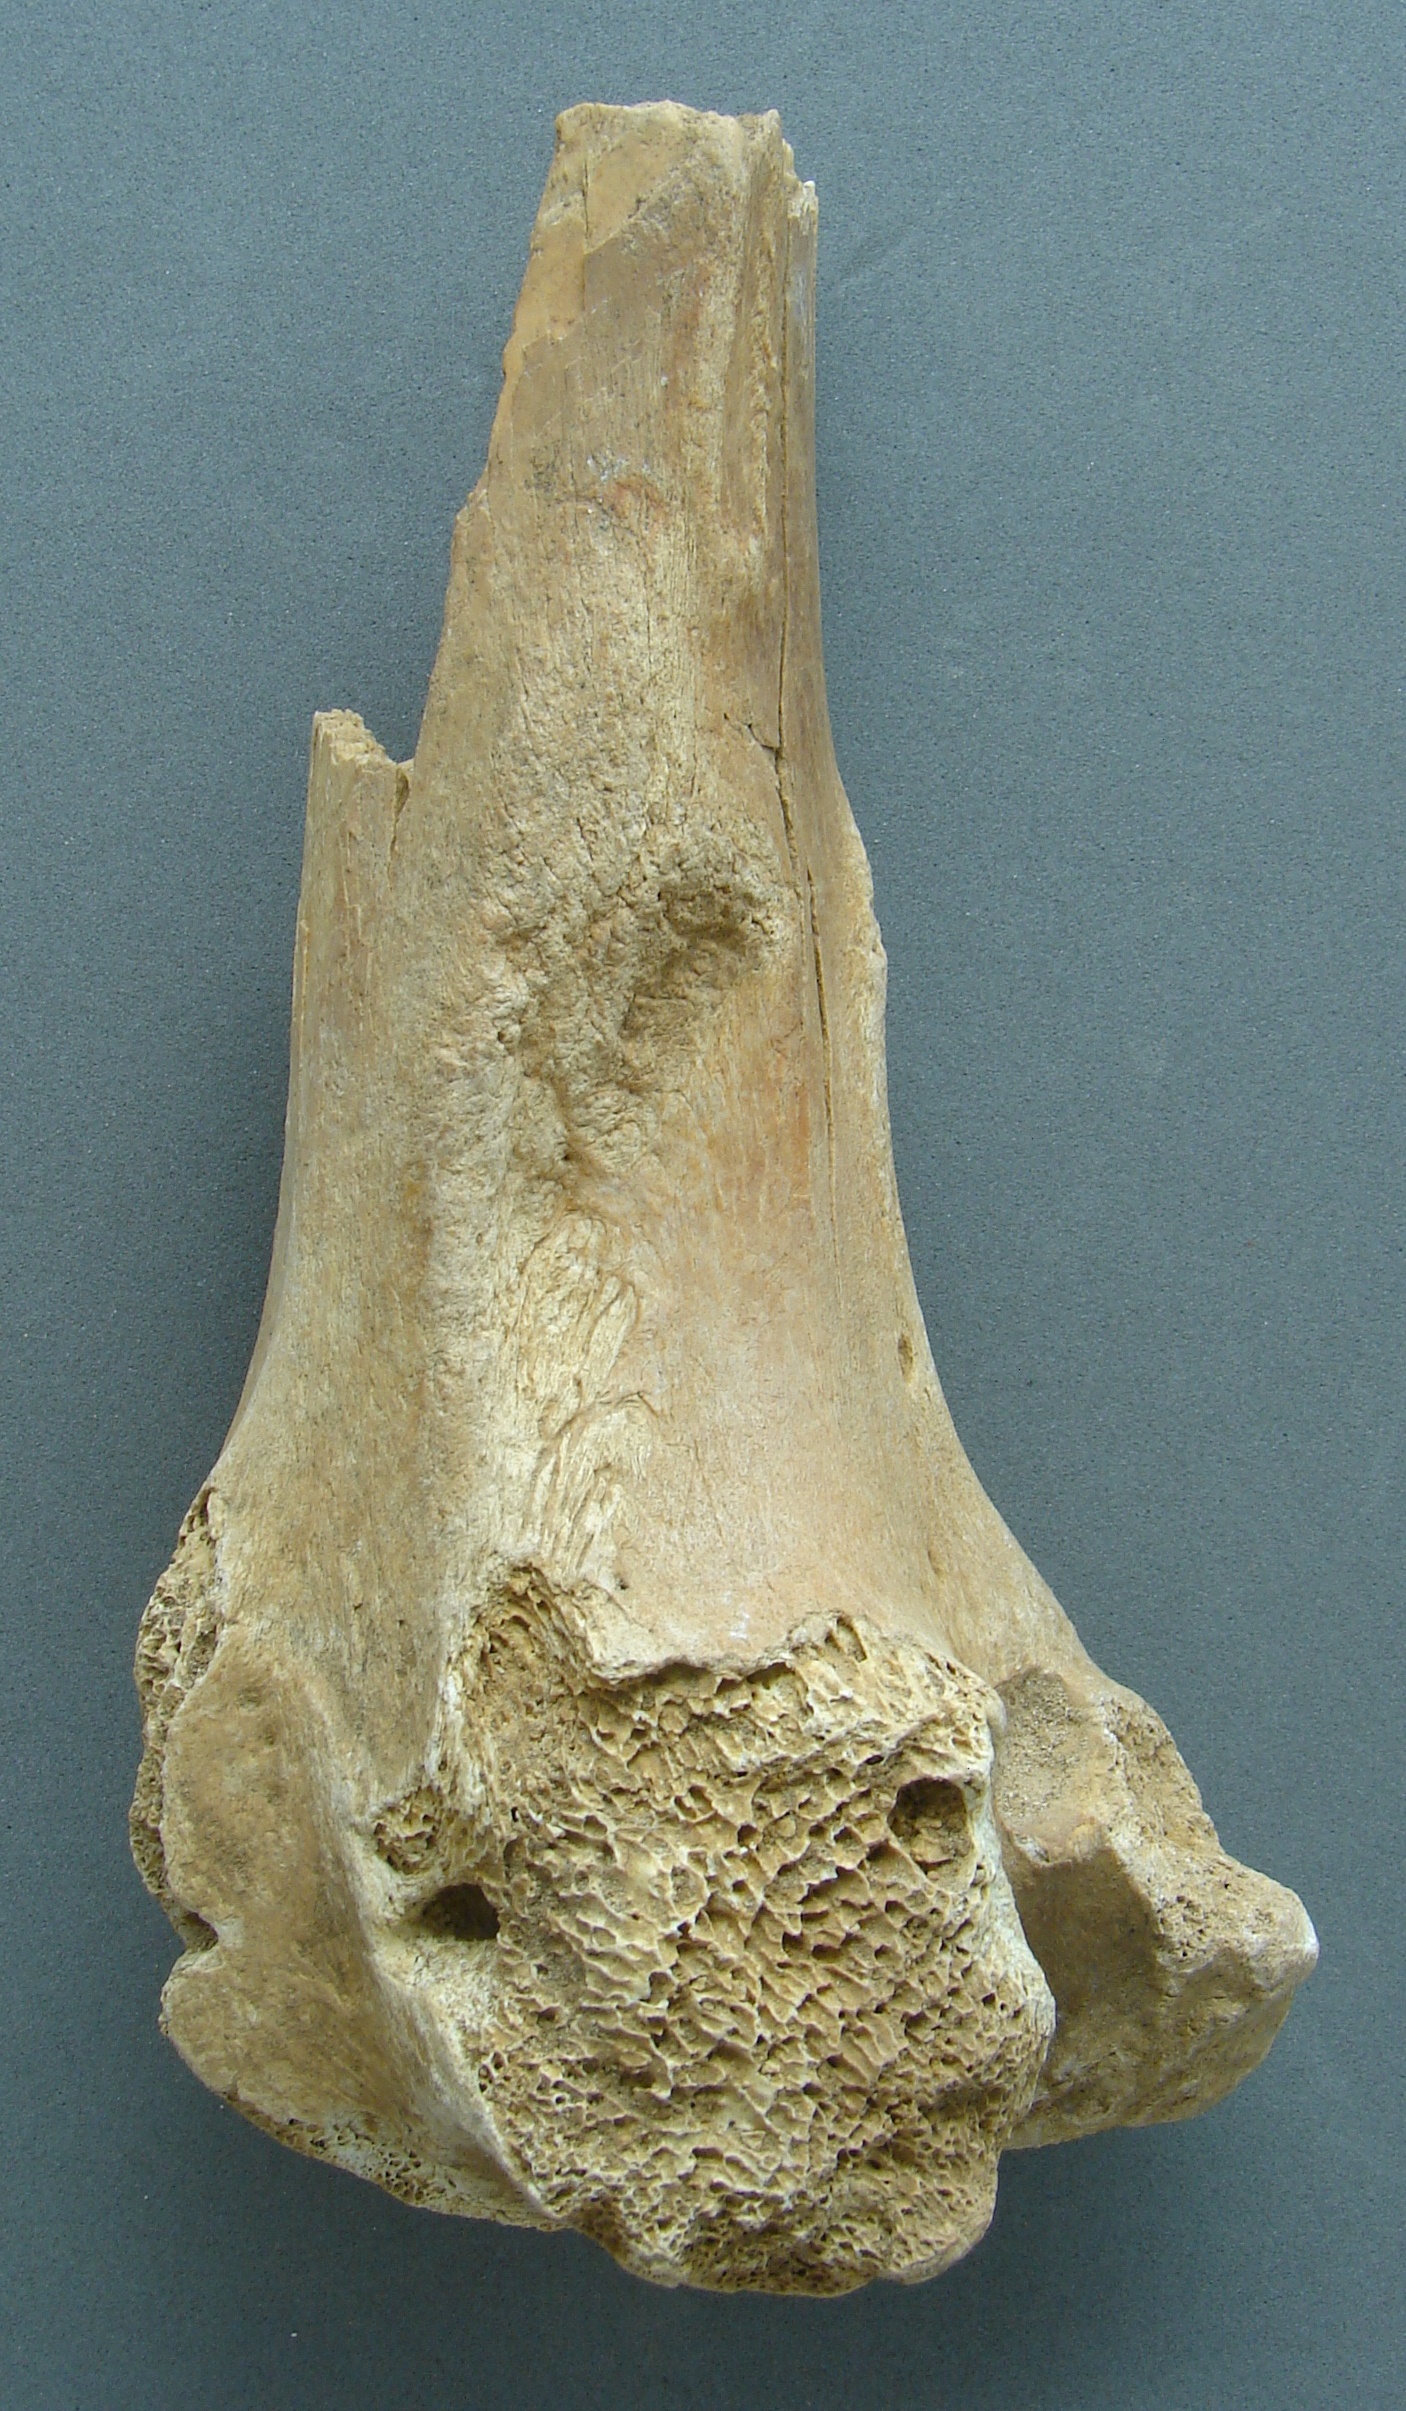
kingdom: Animalia
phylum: Chordata
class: Mammalia
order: Artiodactyla
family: Cervidae
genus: Cervus
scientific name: Cervus elaphus
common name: Red deer
